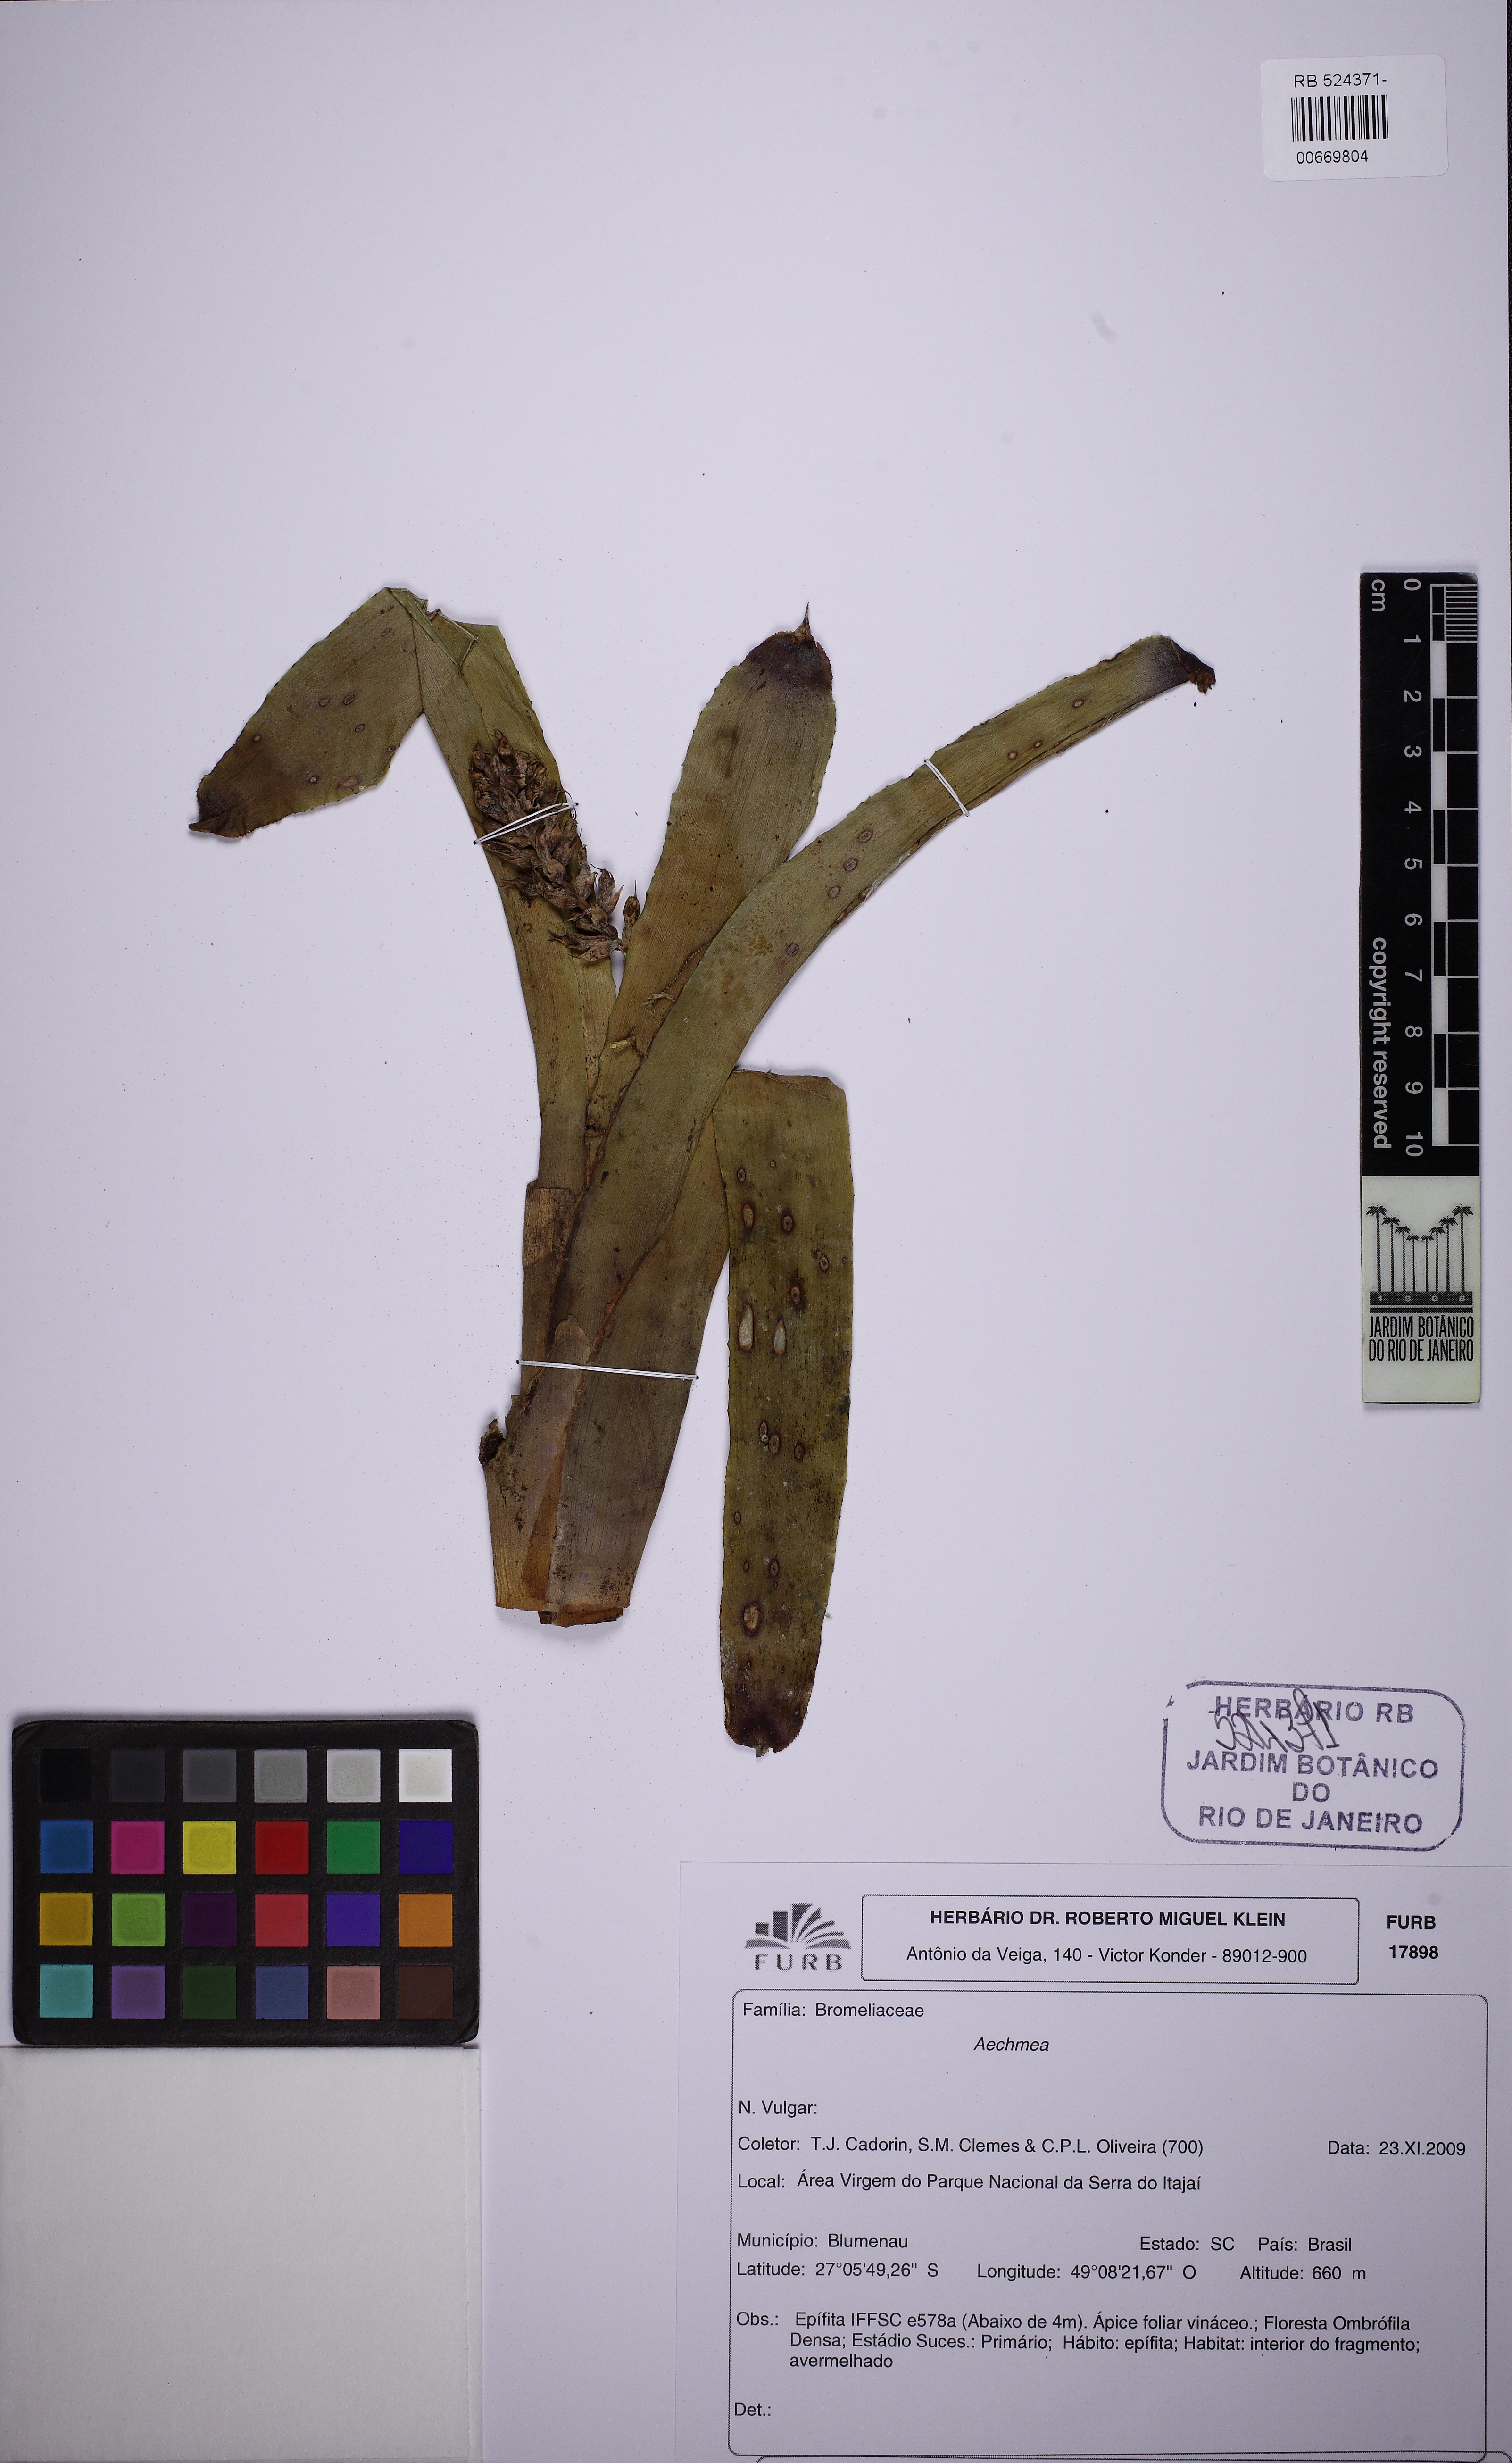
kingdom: Plantae
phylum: Tracheophyta
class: Liliopsida
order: Poales
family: Bromeliaceae
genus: Aechmea
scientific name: Aechmea blumenavii
